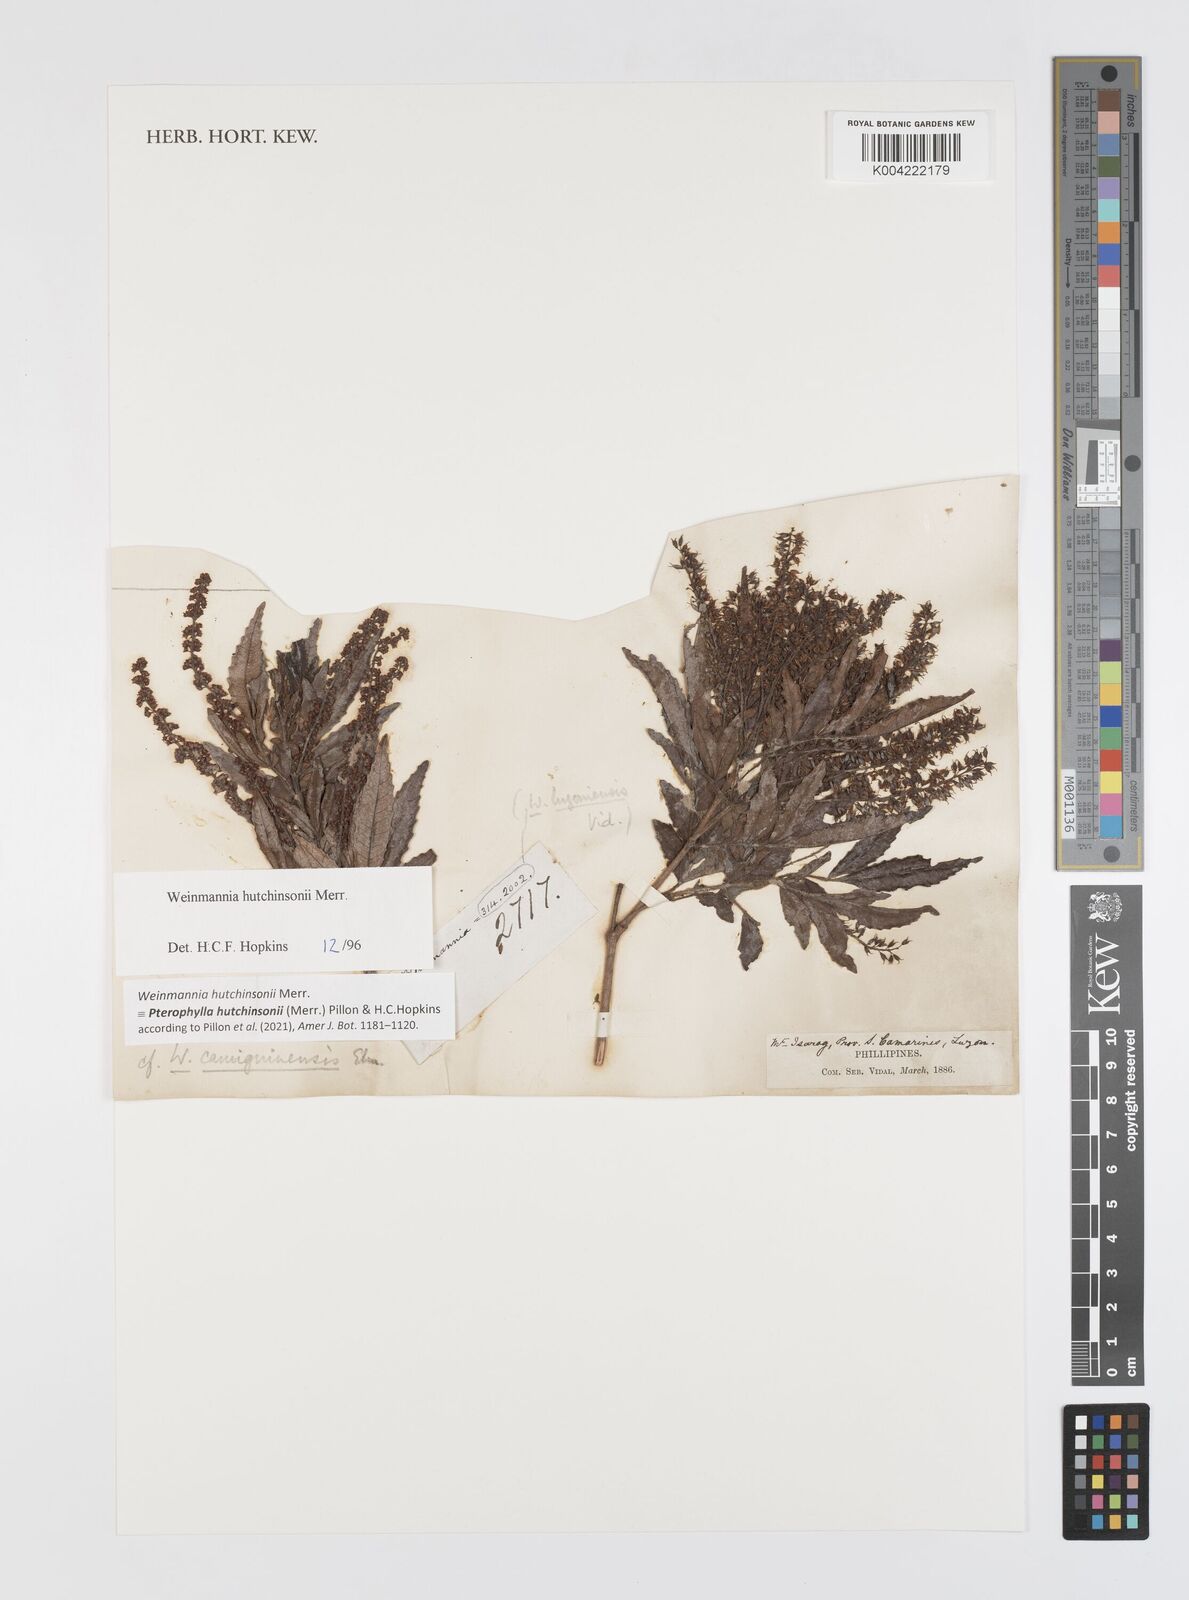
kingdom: Plantae
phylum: Tracheophyta
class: Magnoliopsida
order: Oxalidales
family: Cunoniaceae
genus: Pterophylla
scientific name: Pterophylla hutchinsonii
